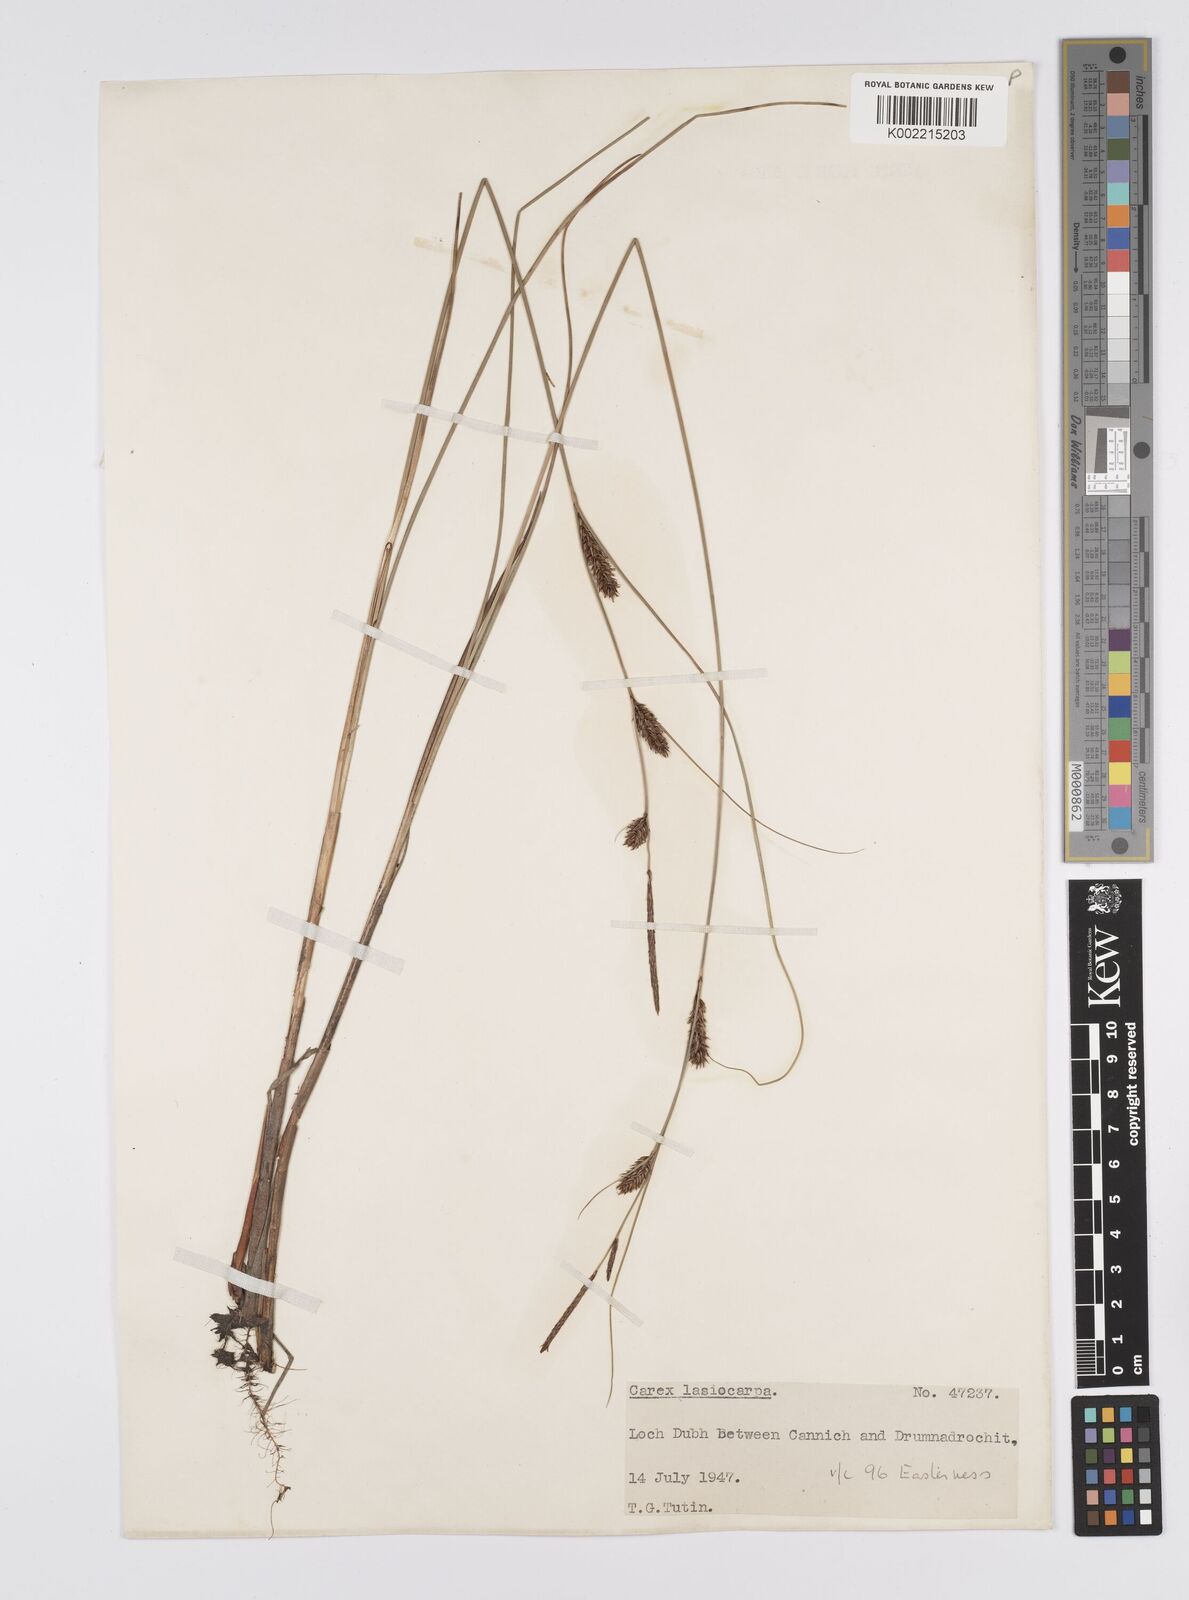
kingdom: Plantae
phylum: Tracheophyta
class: Liliopsida
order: Poales
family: Cyperaceae
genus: Carex
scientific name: Carex lasiocarpa
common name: Slender sedge
